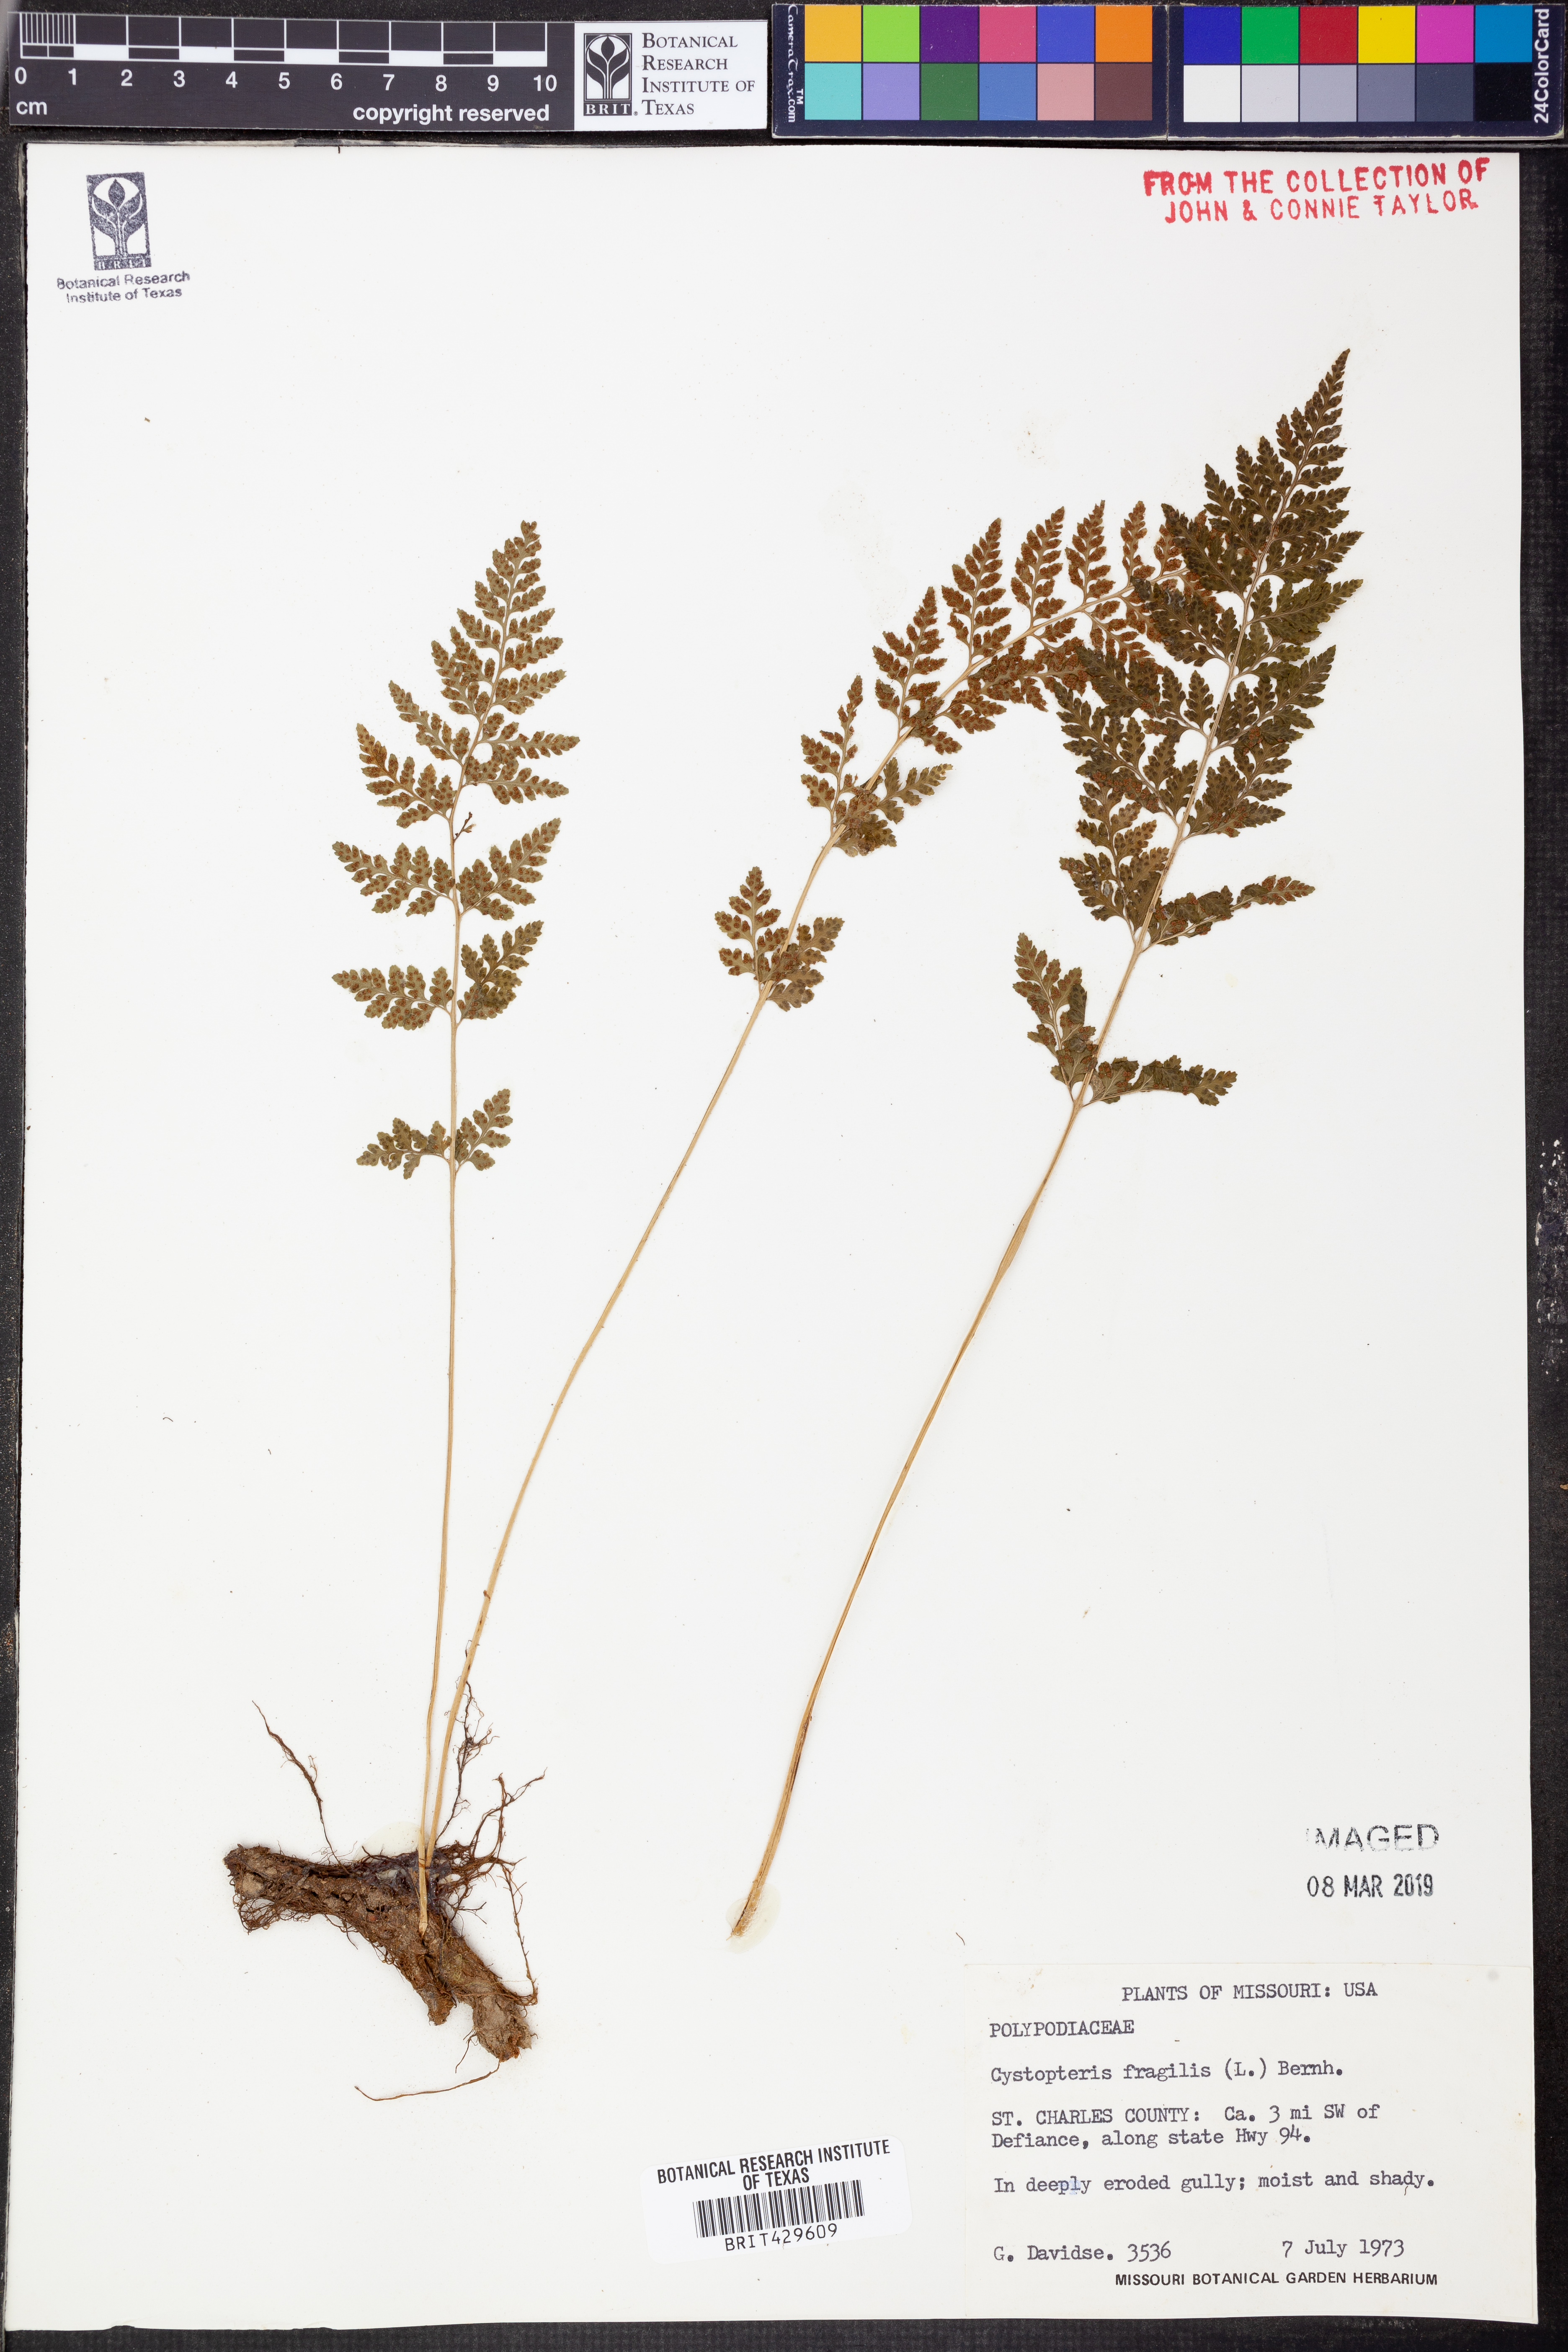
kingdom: Plantae
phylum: Tracheophyta
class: Polypodiopsida
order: Polypodiales
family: Cystopteridaceae
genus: Cystopteris
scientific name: Cystopteris fragilis
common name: Brittle bladder fern
